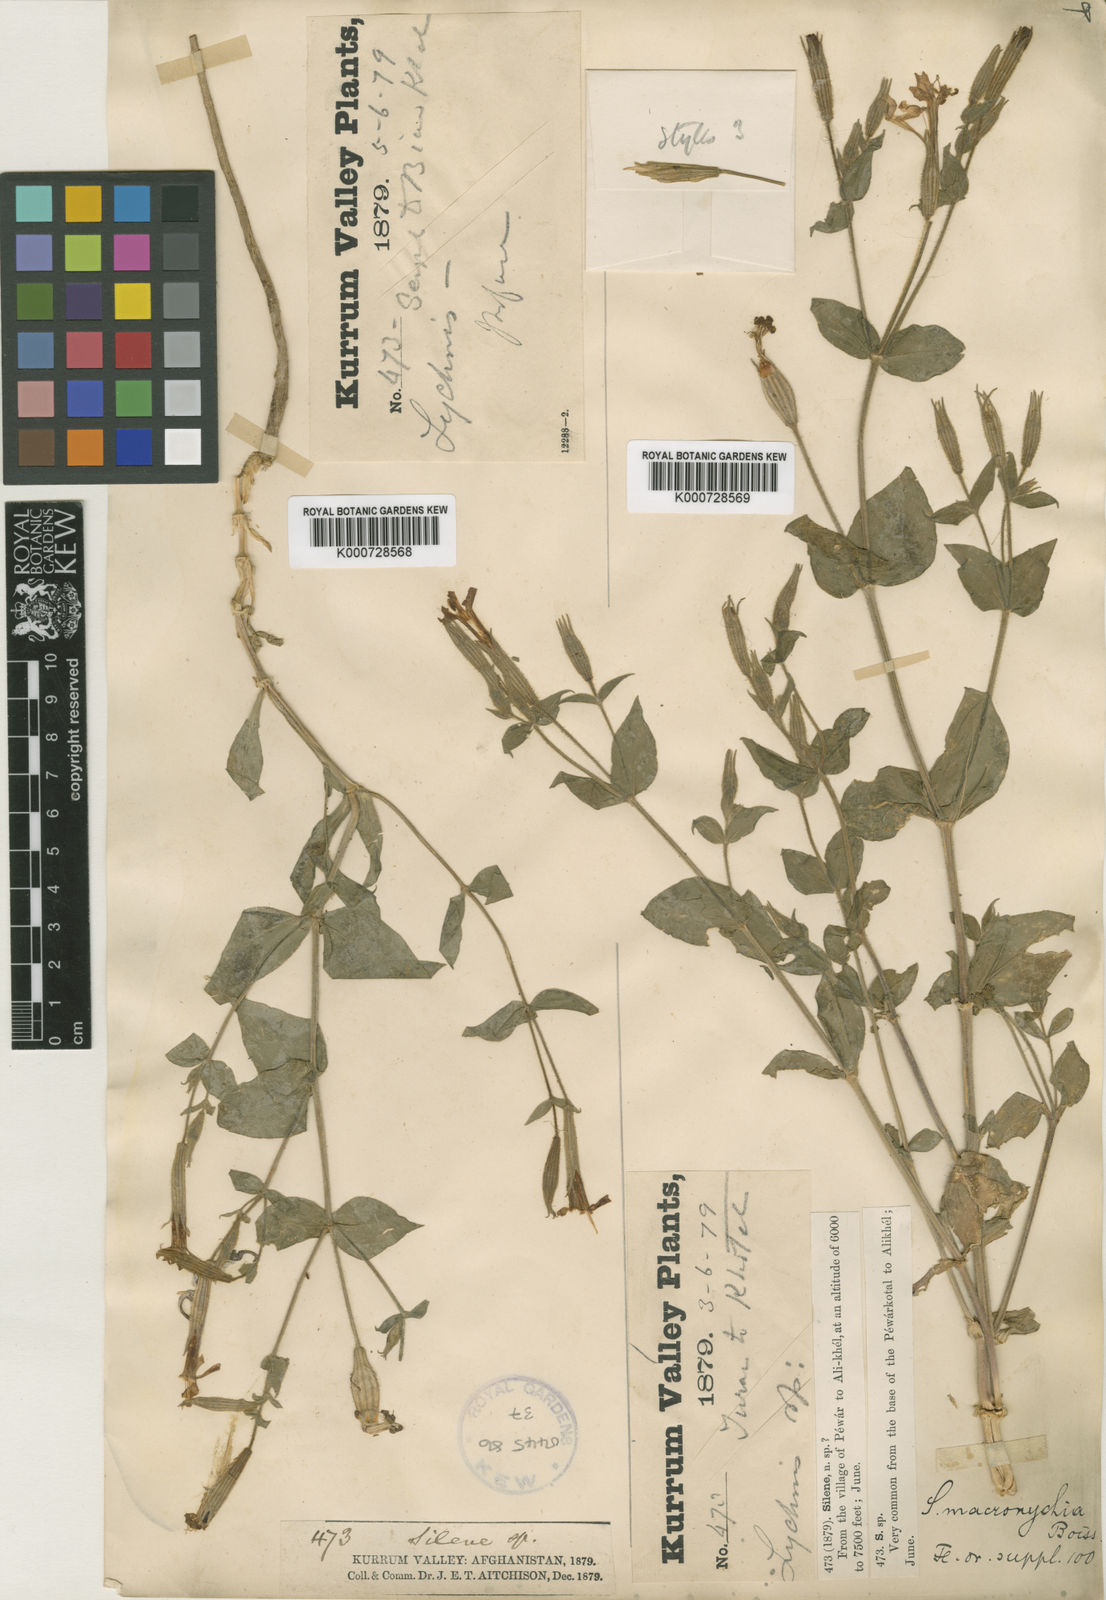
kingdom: Plantae
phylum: Tracheophyta
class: Magnoliopsida
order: Caryophyllales
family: Caryophyllaceae
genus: Silene
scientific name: Silene ovalifolia
